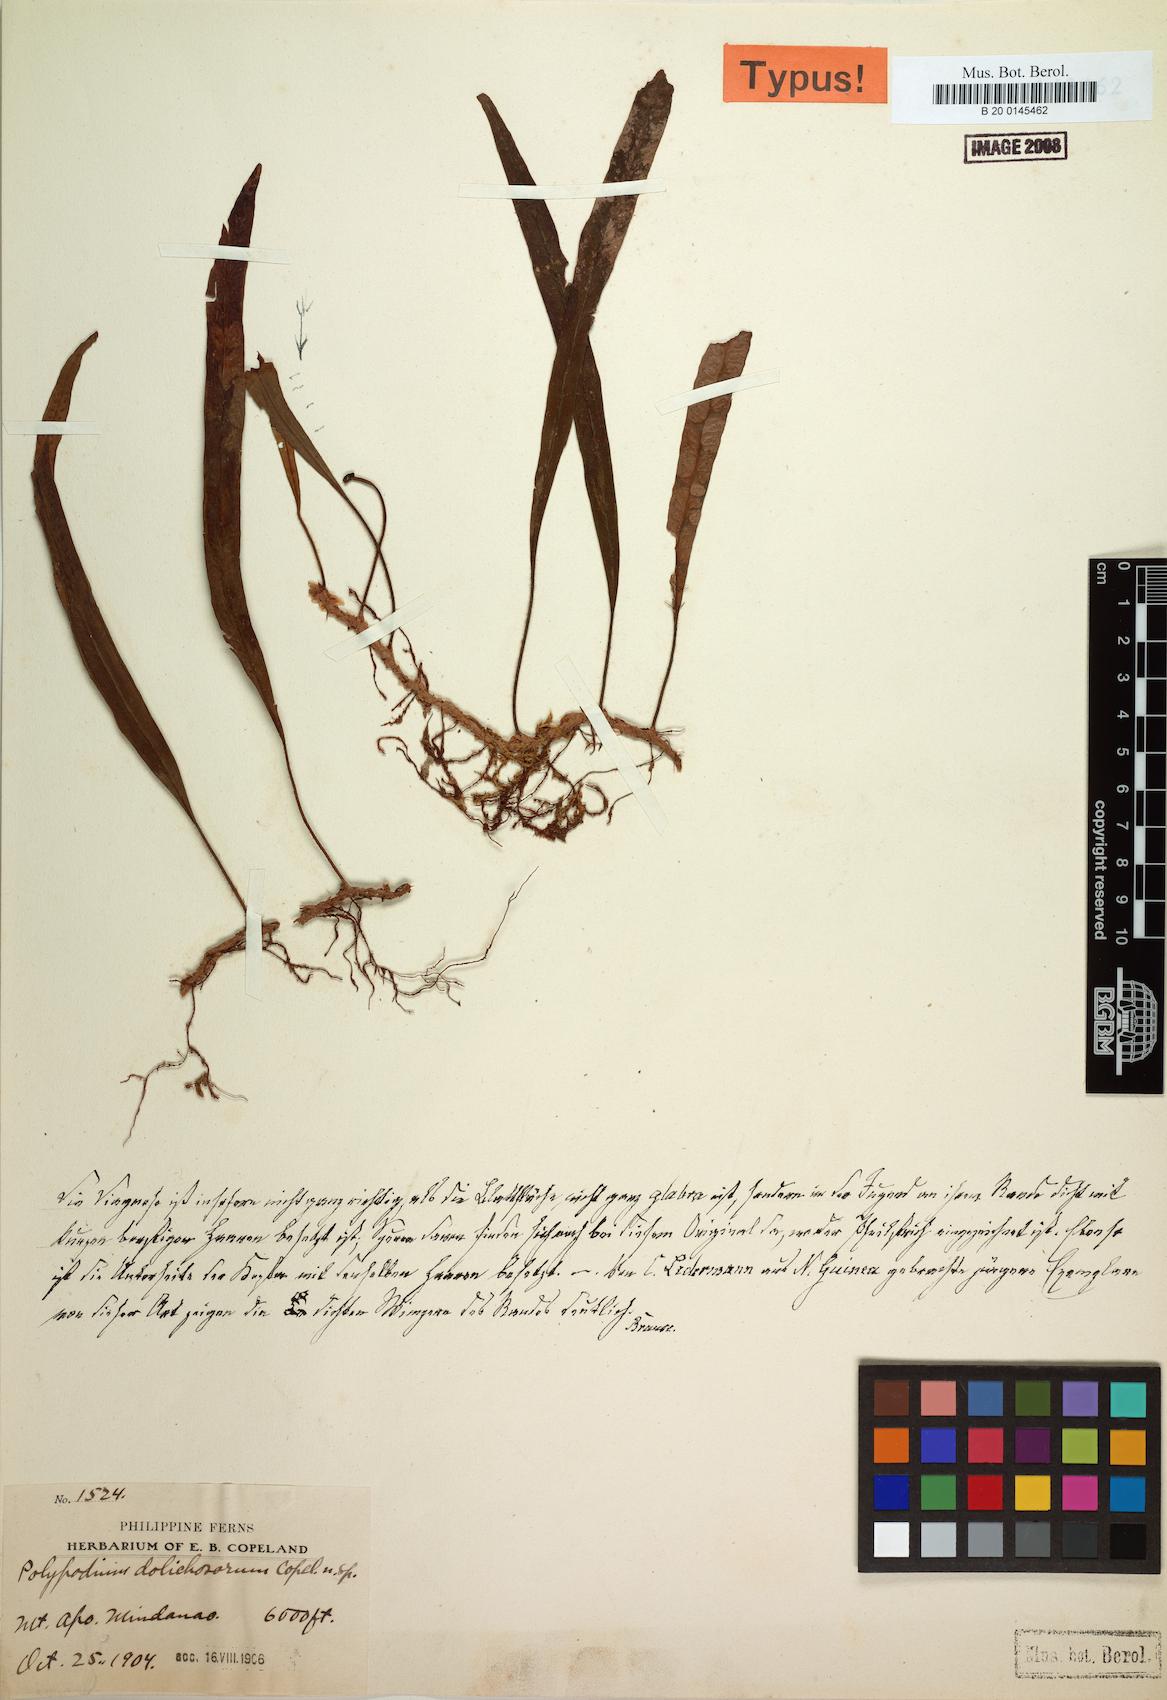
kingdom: Plantae
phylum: Tracheophyta
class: Polypodiopsida
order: Polypodiales
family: Polypodiaceae
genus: Oreogrammitis
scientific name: Oreogrammitis dolichosora
